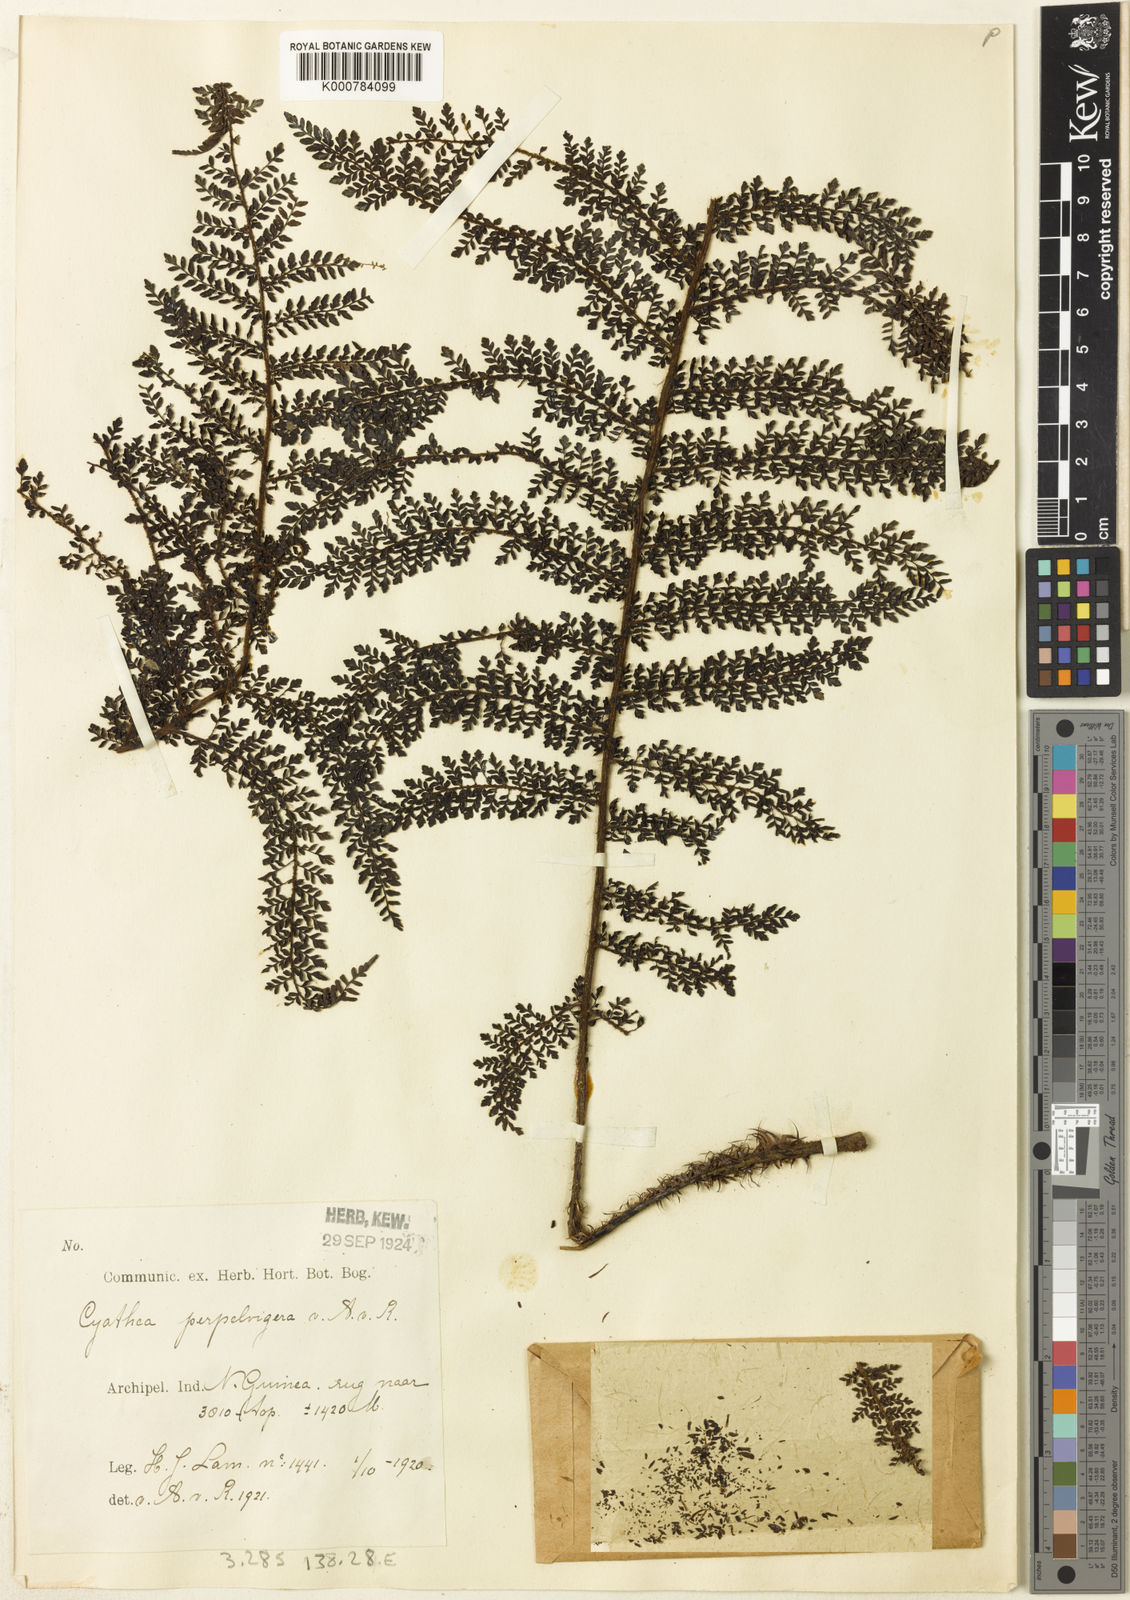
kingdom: Plantae
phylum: Tracheophyta
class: Polypodiopsida
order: Cyatheales
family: Cyatheaceae
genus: Alsophila
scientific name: Alsophila perpelvigera
